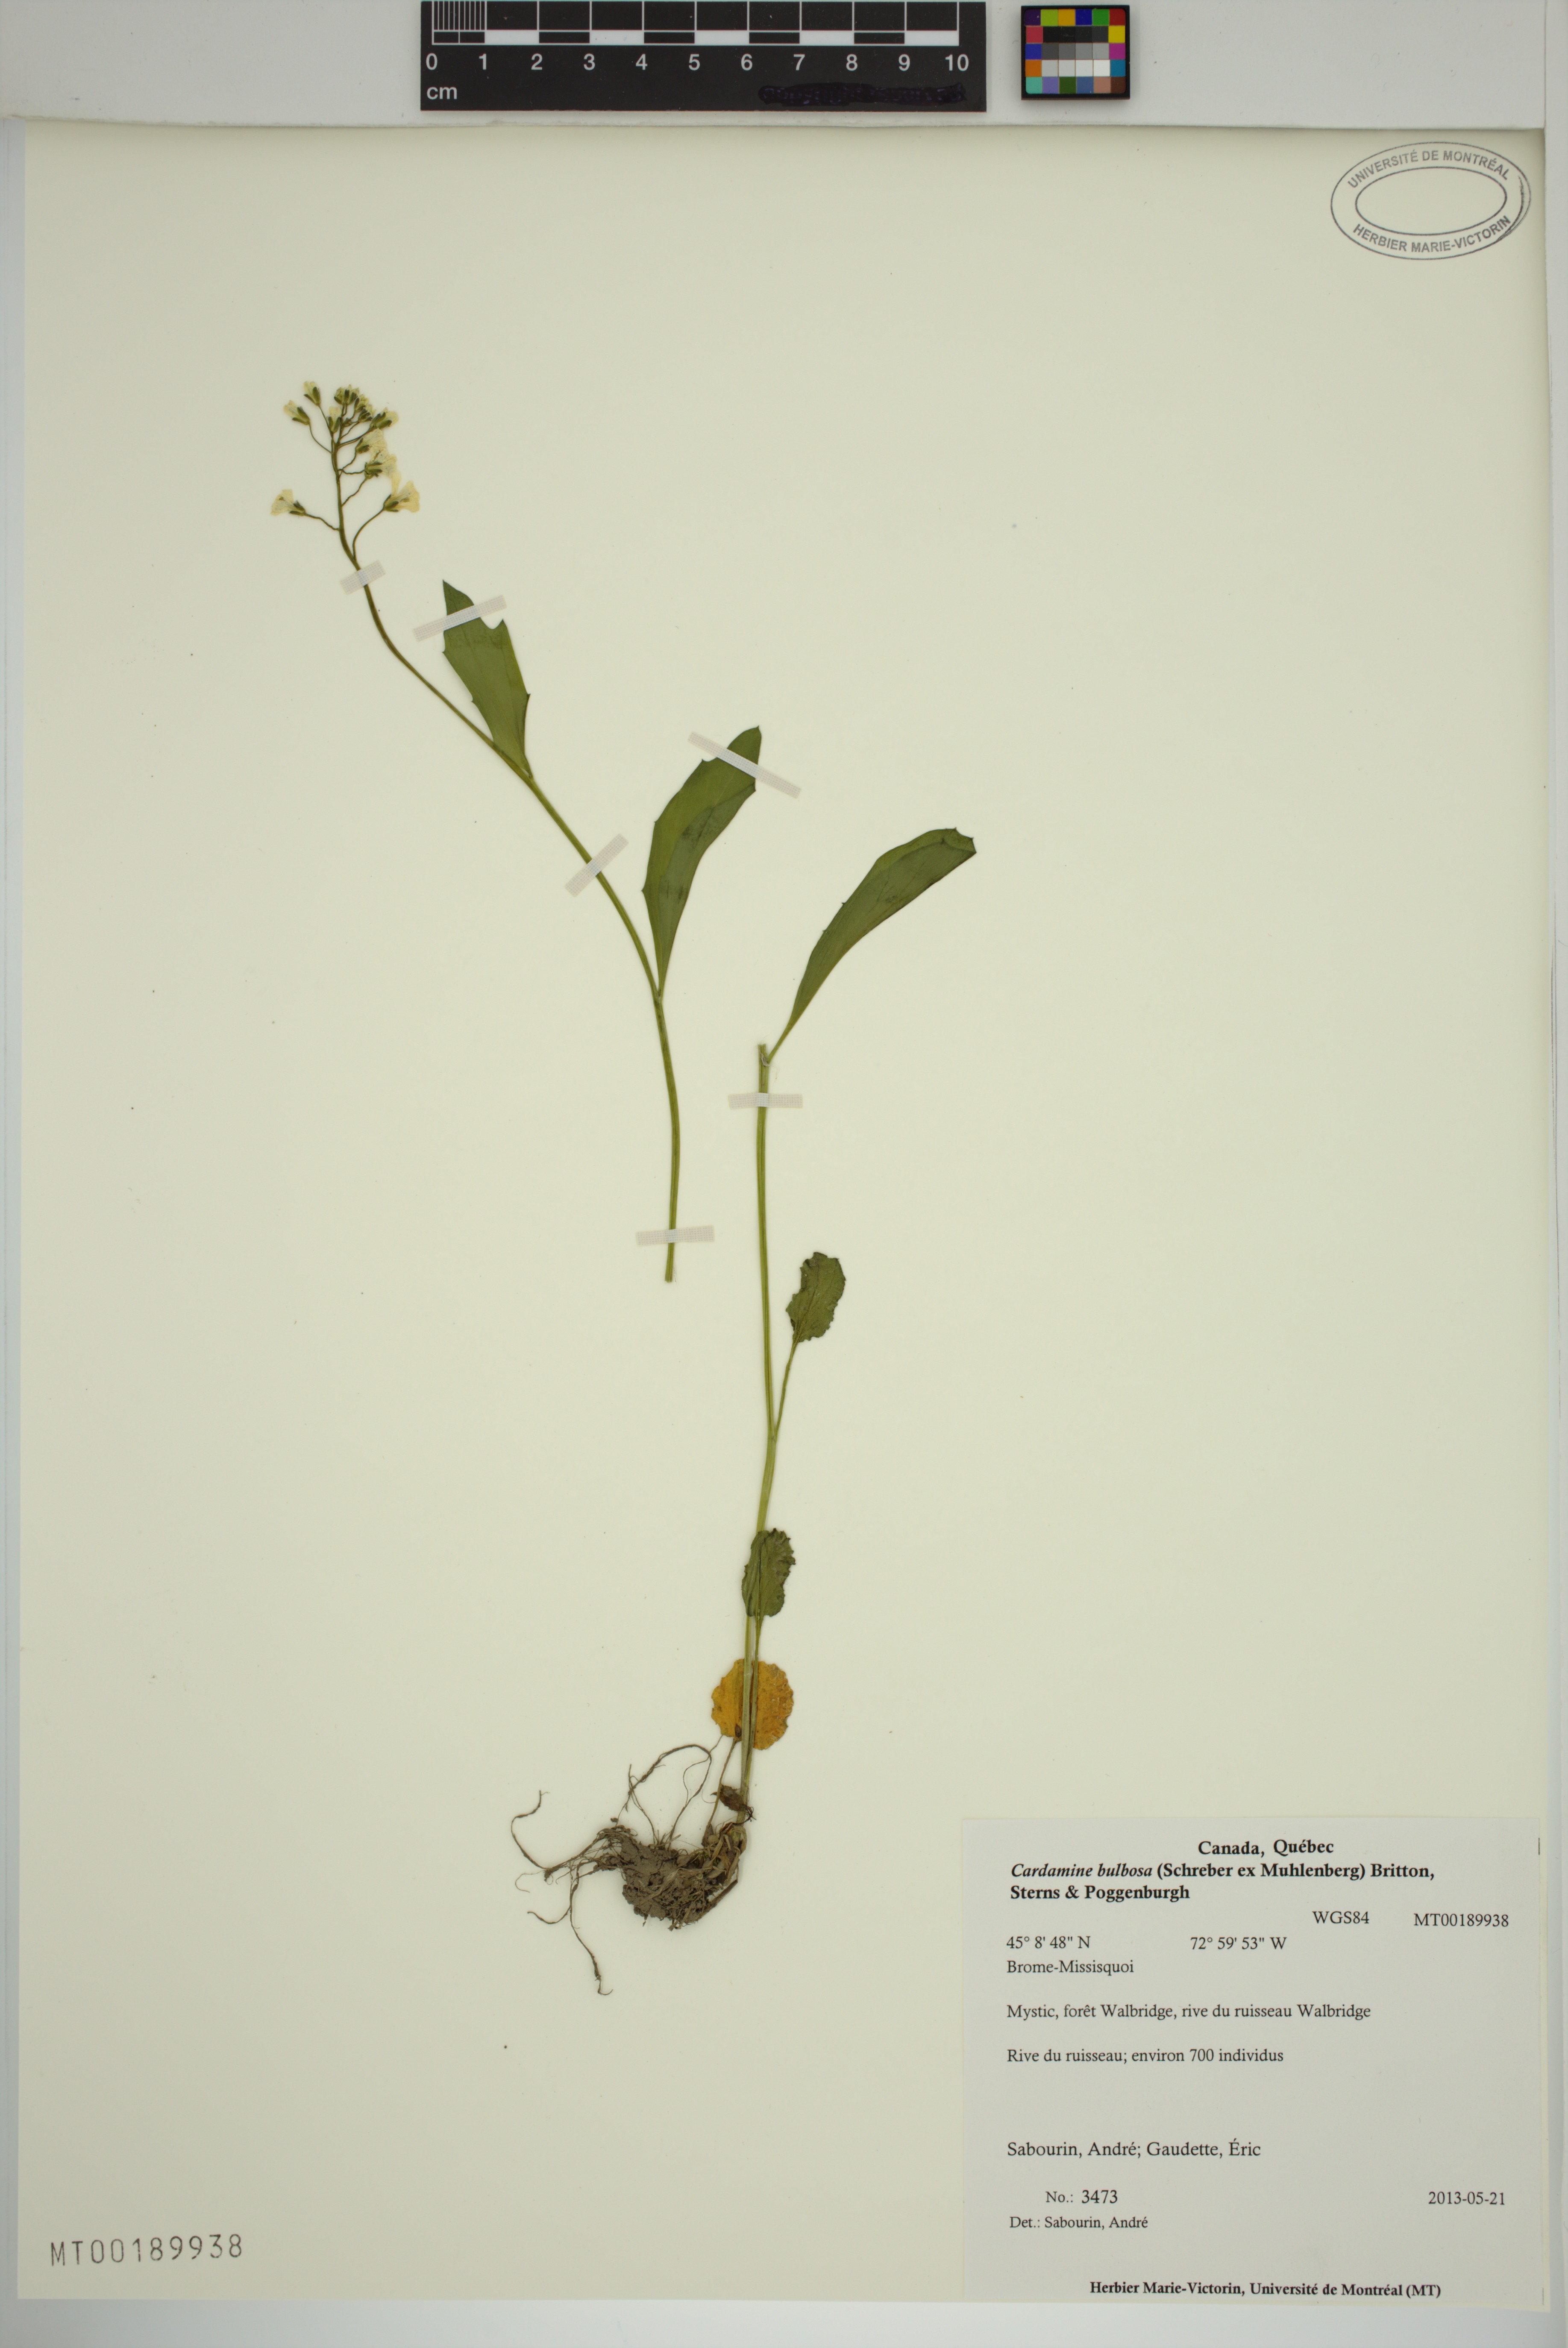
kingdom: Plantae
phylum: Tracheophyta
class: Magnoliopsida
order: Brassicales
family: Brassicaceae
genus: Cardamine
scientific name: Cardamine bulbosa
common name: Spring cress
